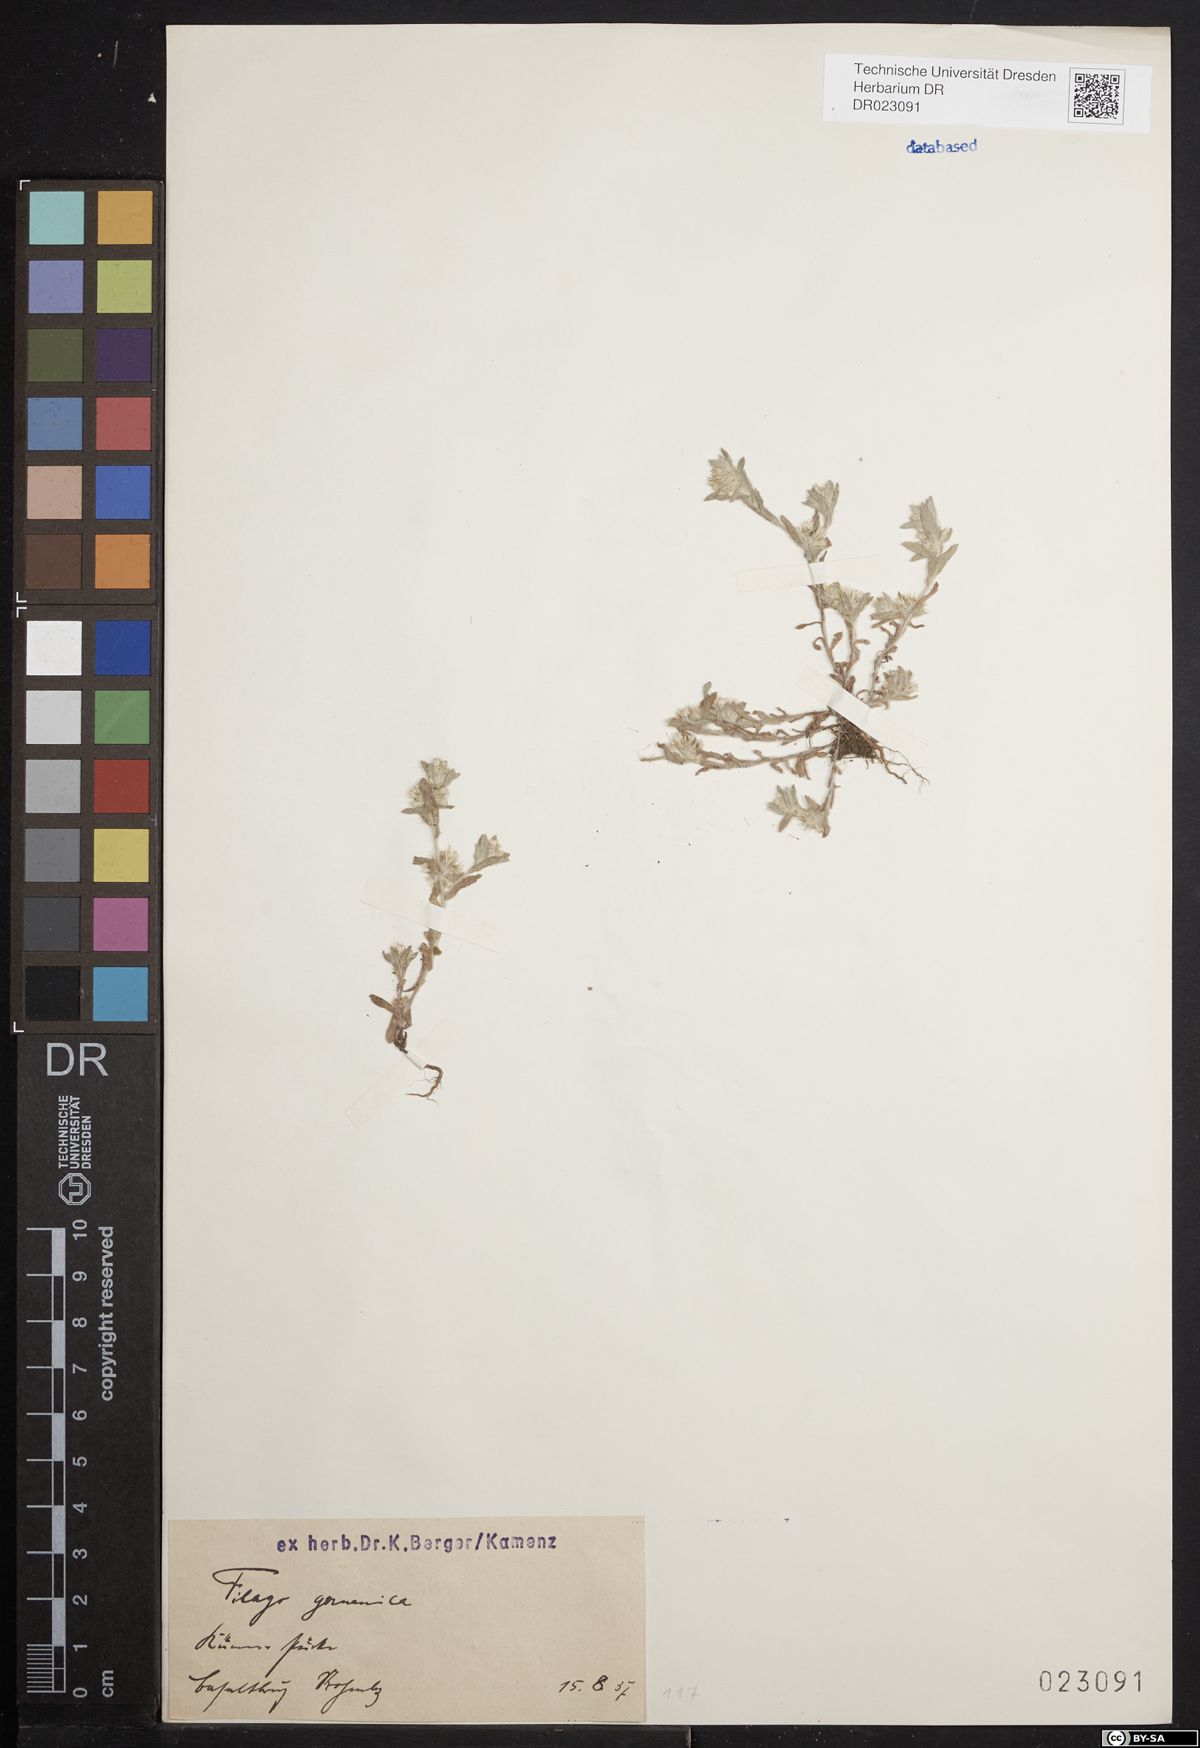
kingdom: Plantae
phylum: Tracheophyta
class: Magnoliopsida
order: Asterales
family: Asteraceae
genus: Filago
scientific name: Filago germanica
